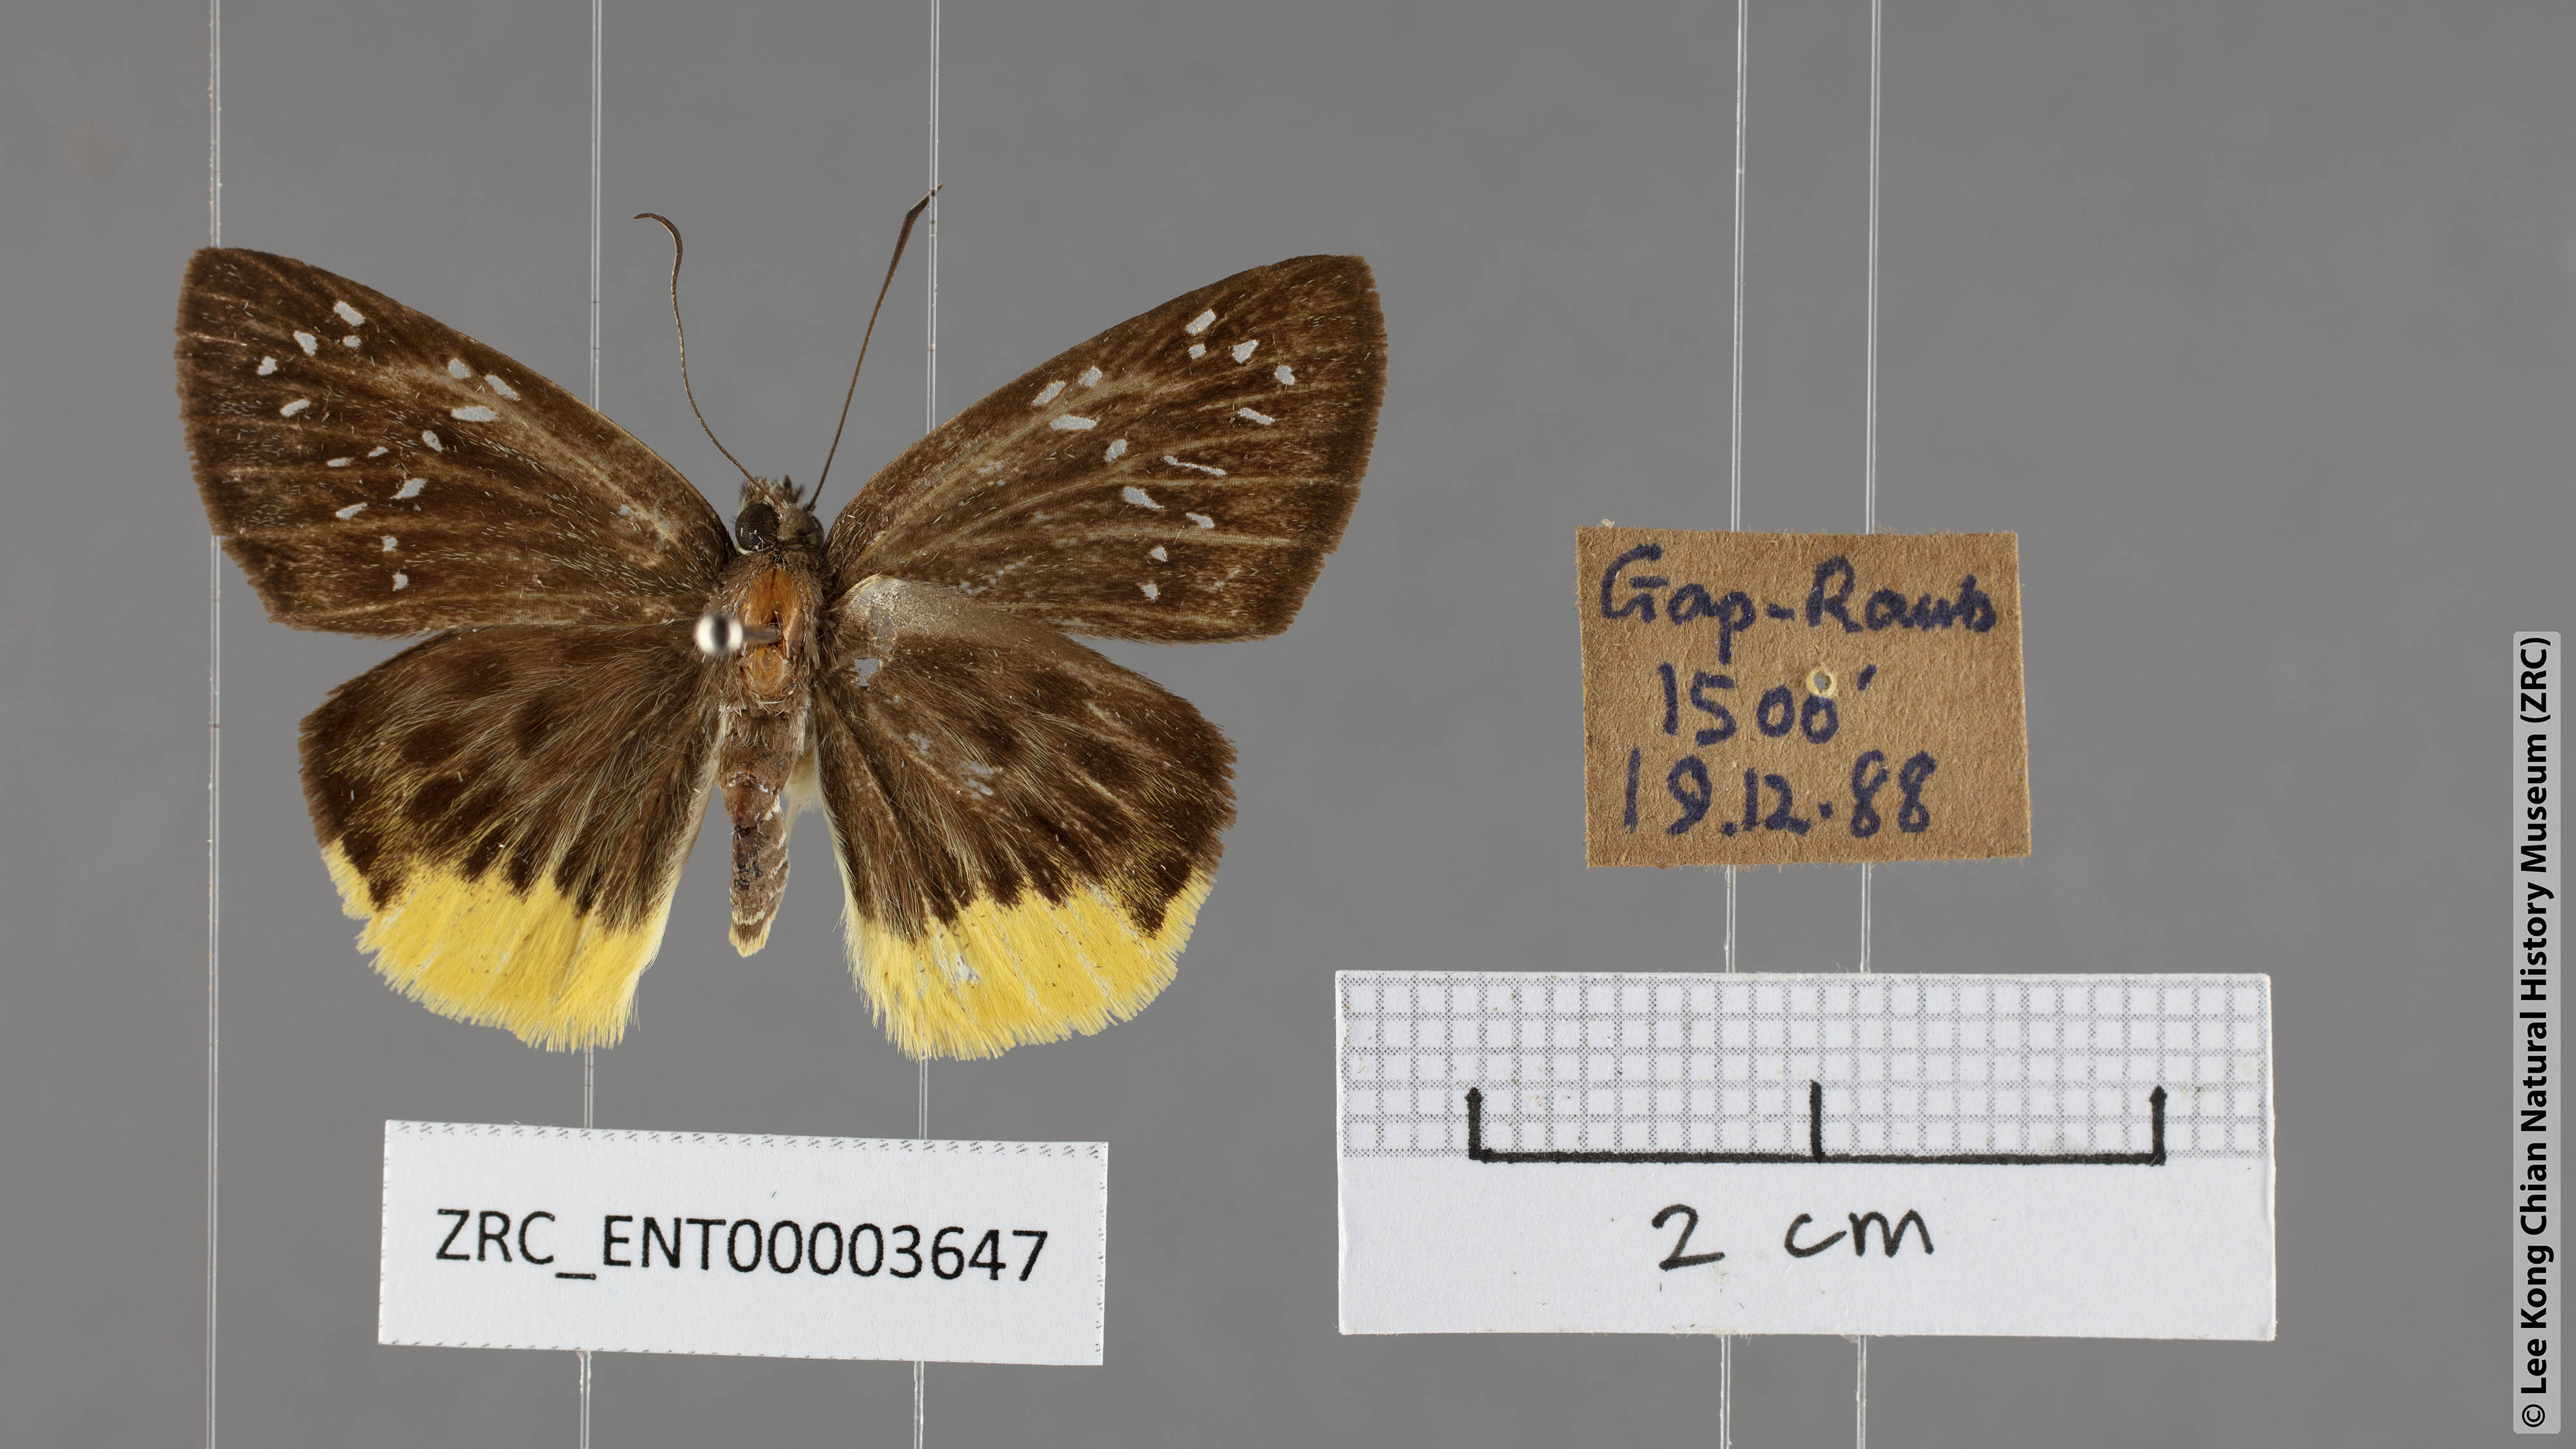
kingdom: Animalia
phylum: Arthropoda
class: Insecta
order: Lepidoptera
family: Hesperiidae
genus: Mooreana
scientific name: Mooreana trichoneura
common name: Yellow flat
